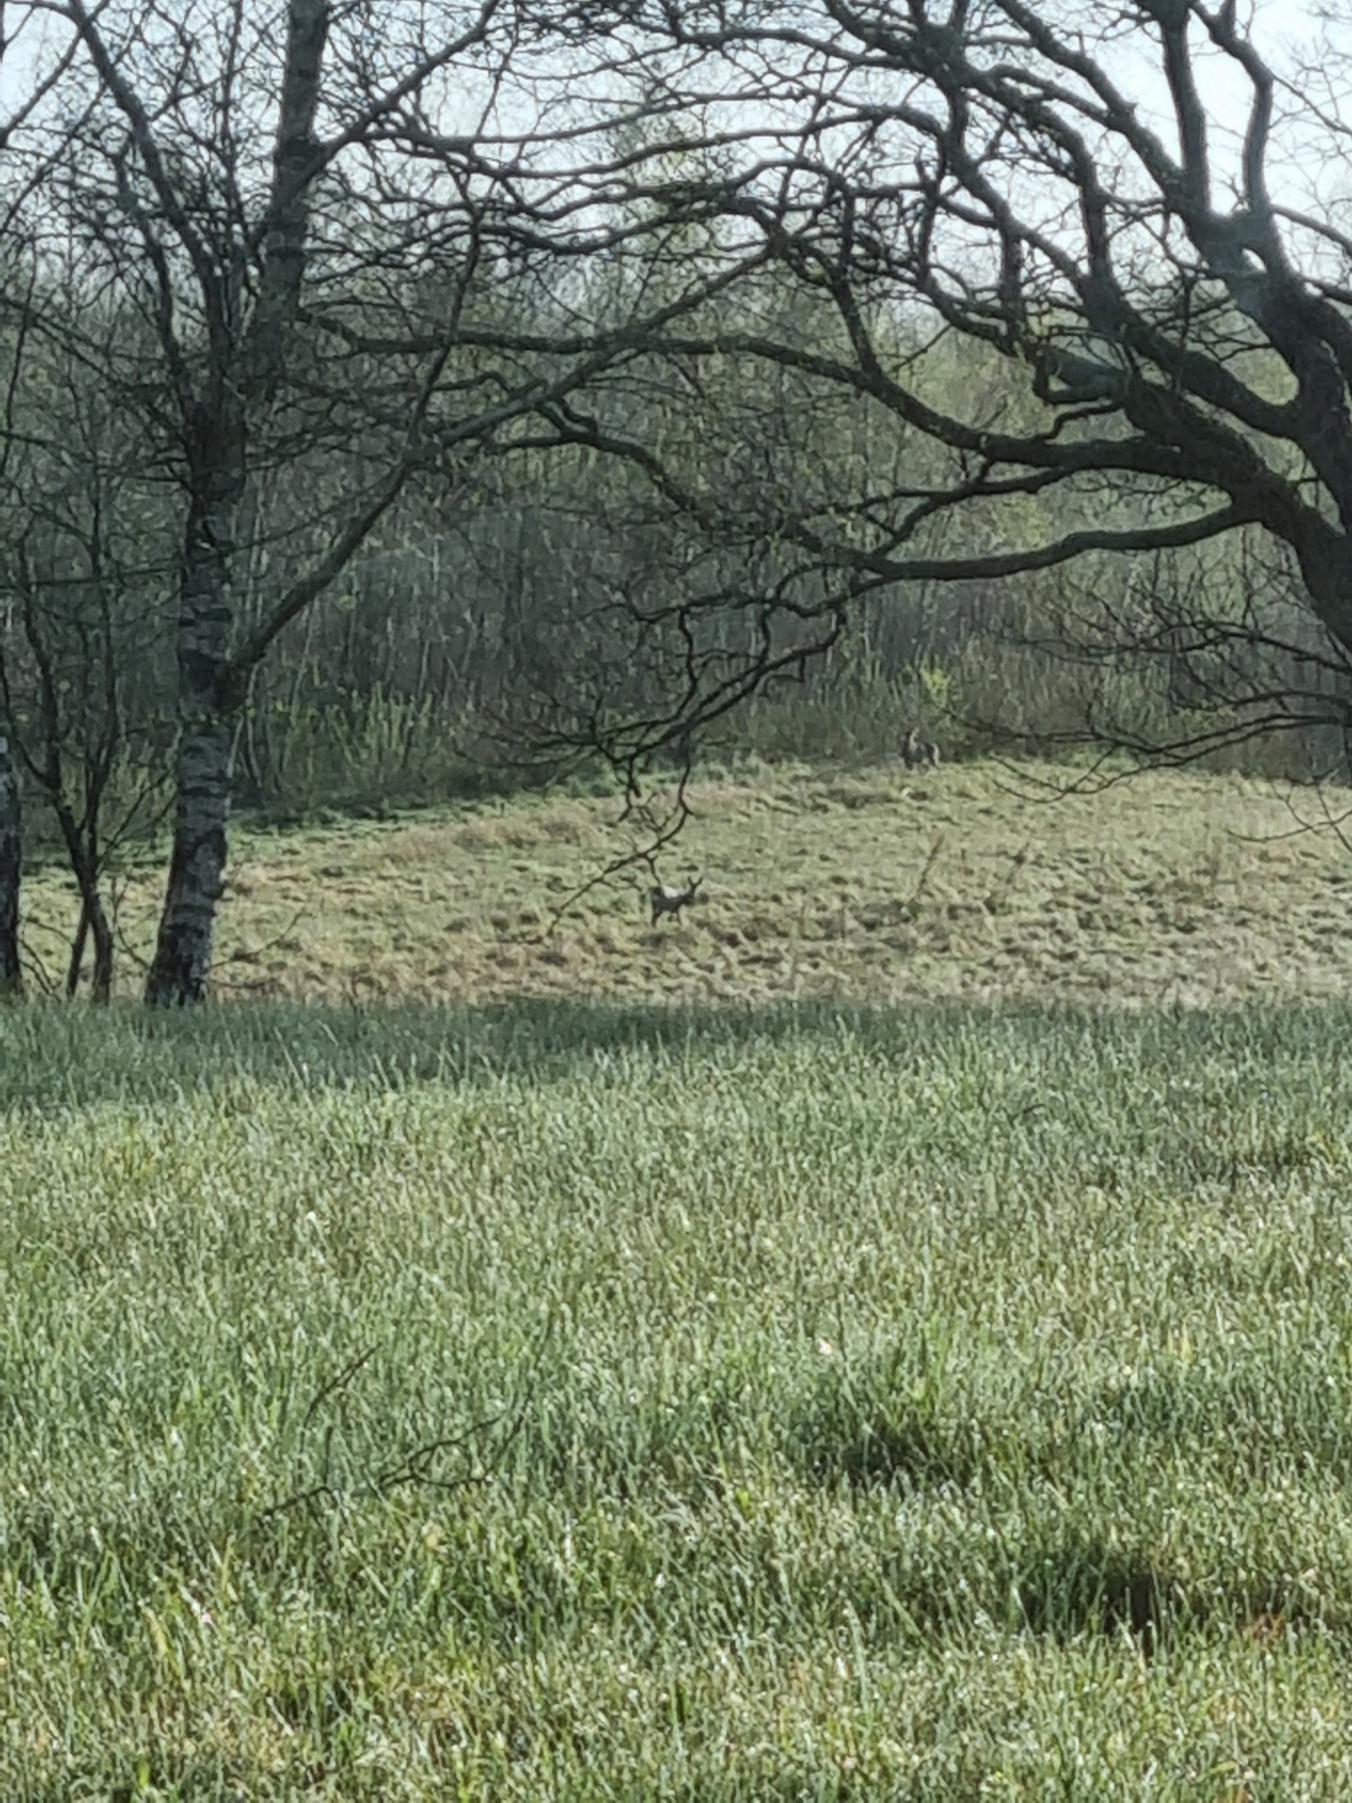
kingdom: Animalia
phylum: Chordata
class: Mammalia
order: Artiodactyla
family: Cervidae
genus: Capreolus
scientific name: Capreolus capreolus
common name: Rådyr
